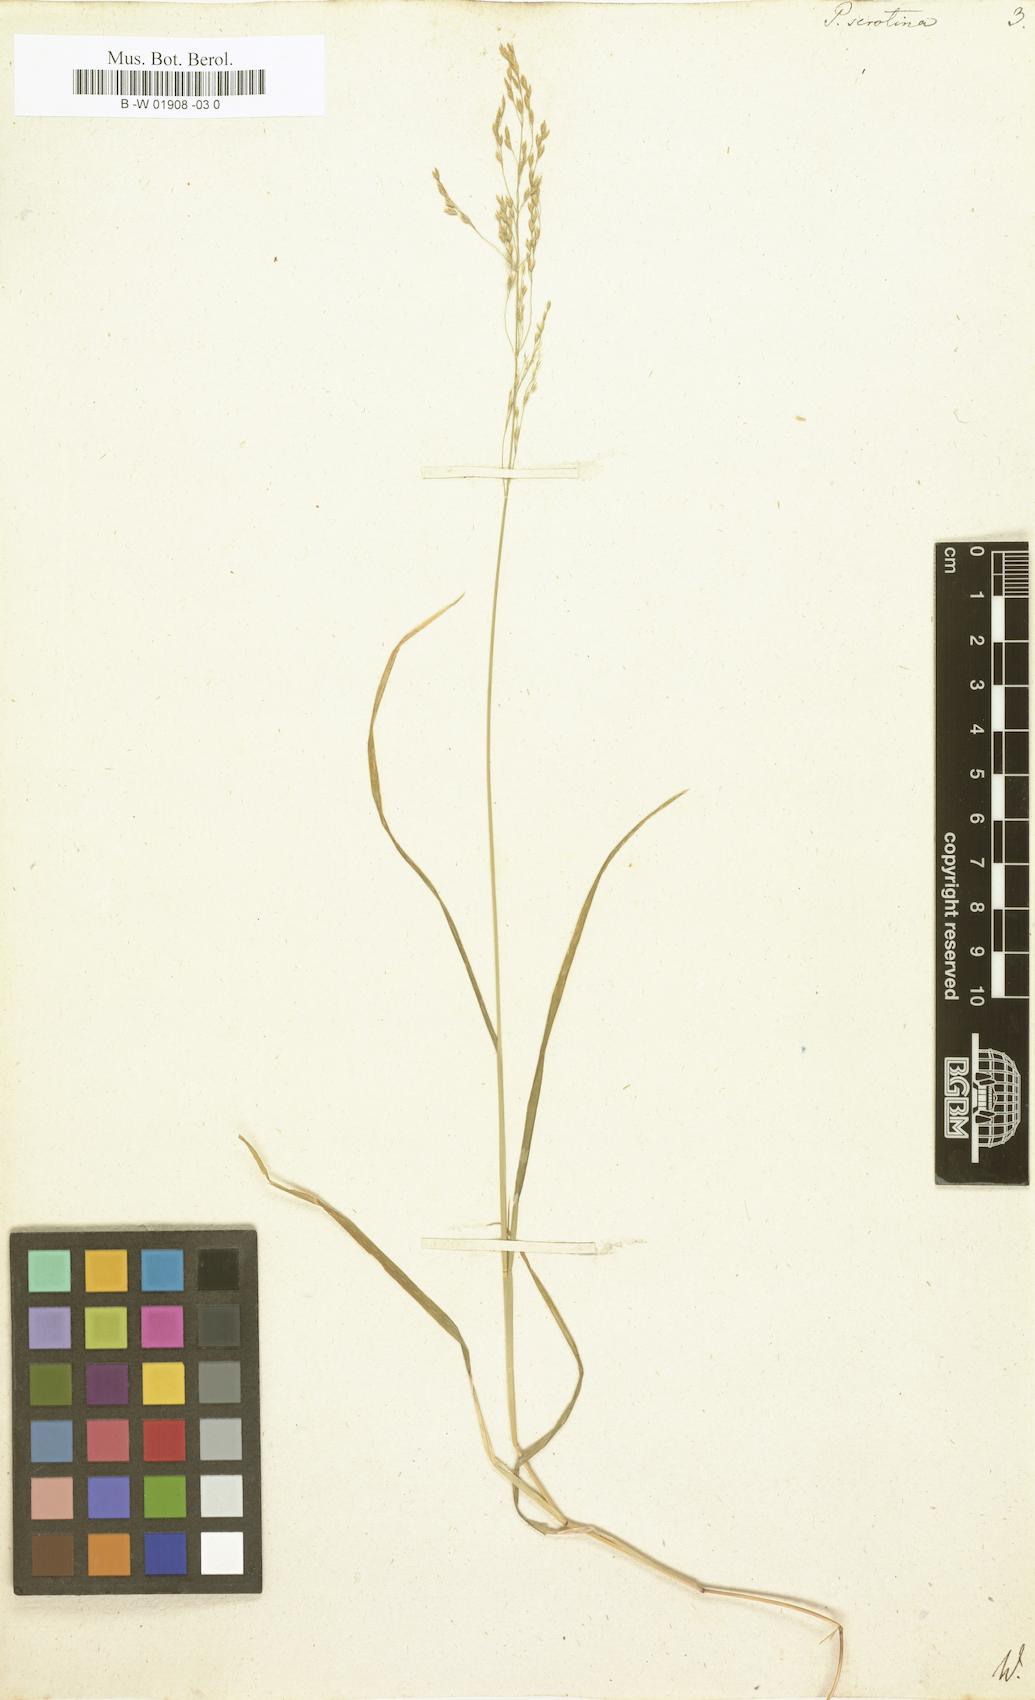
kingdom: Plantae
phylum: Tracheophyta
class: Liliopsida
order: Poales
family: Poaceae
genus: Poa
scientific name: Poa palustris
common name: Swamp meadow-grass
